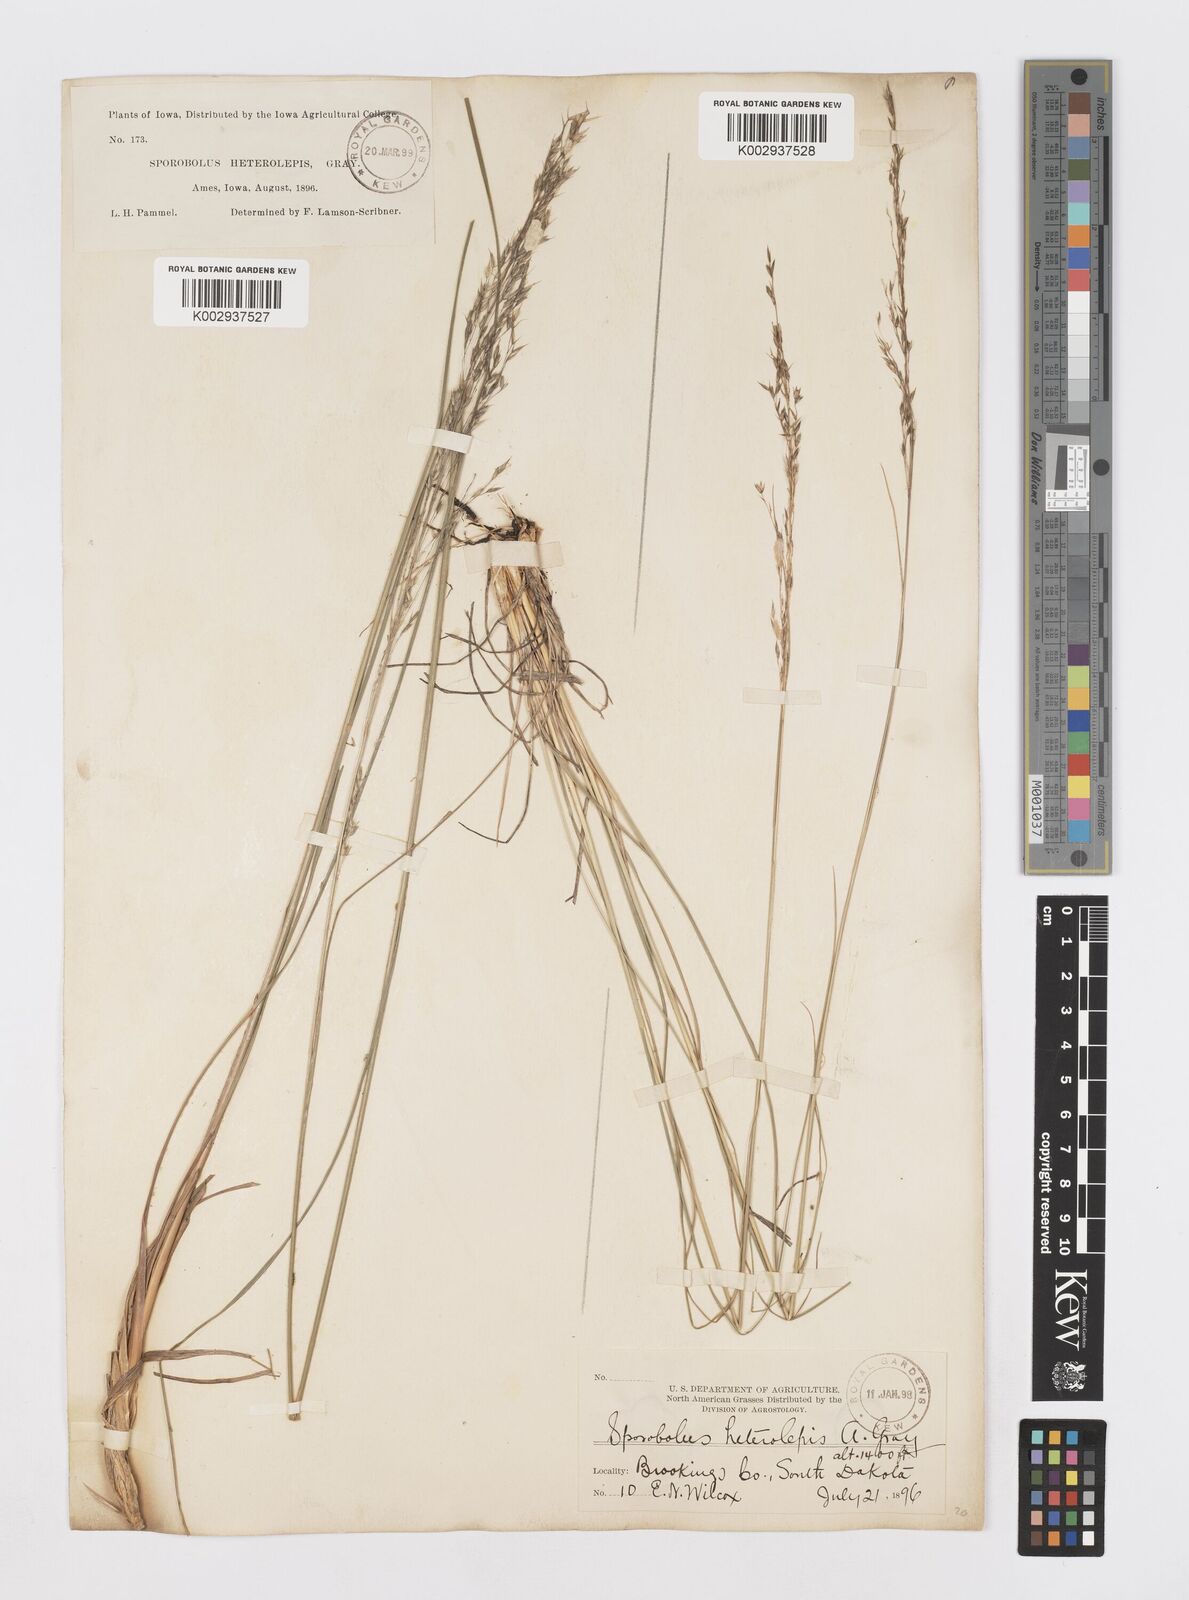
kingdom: Plantae
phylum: Tracheophyta
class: Liliopsida
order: Poales
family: Poaceae
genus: Sporobolus
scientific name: Sporobolus heterolepis
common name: Prairie dropseed
